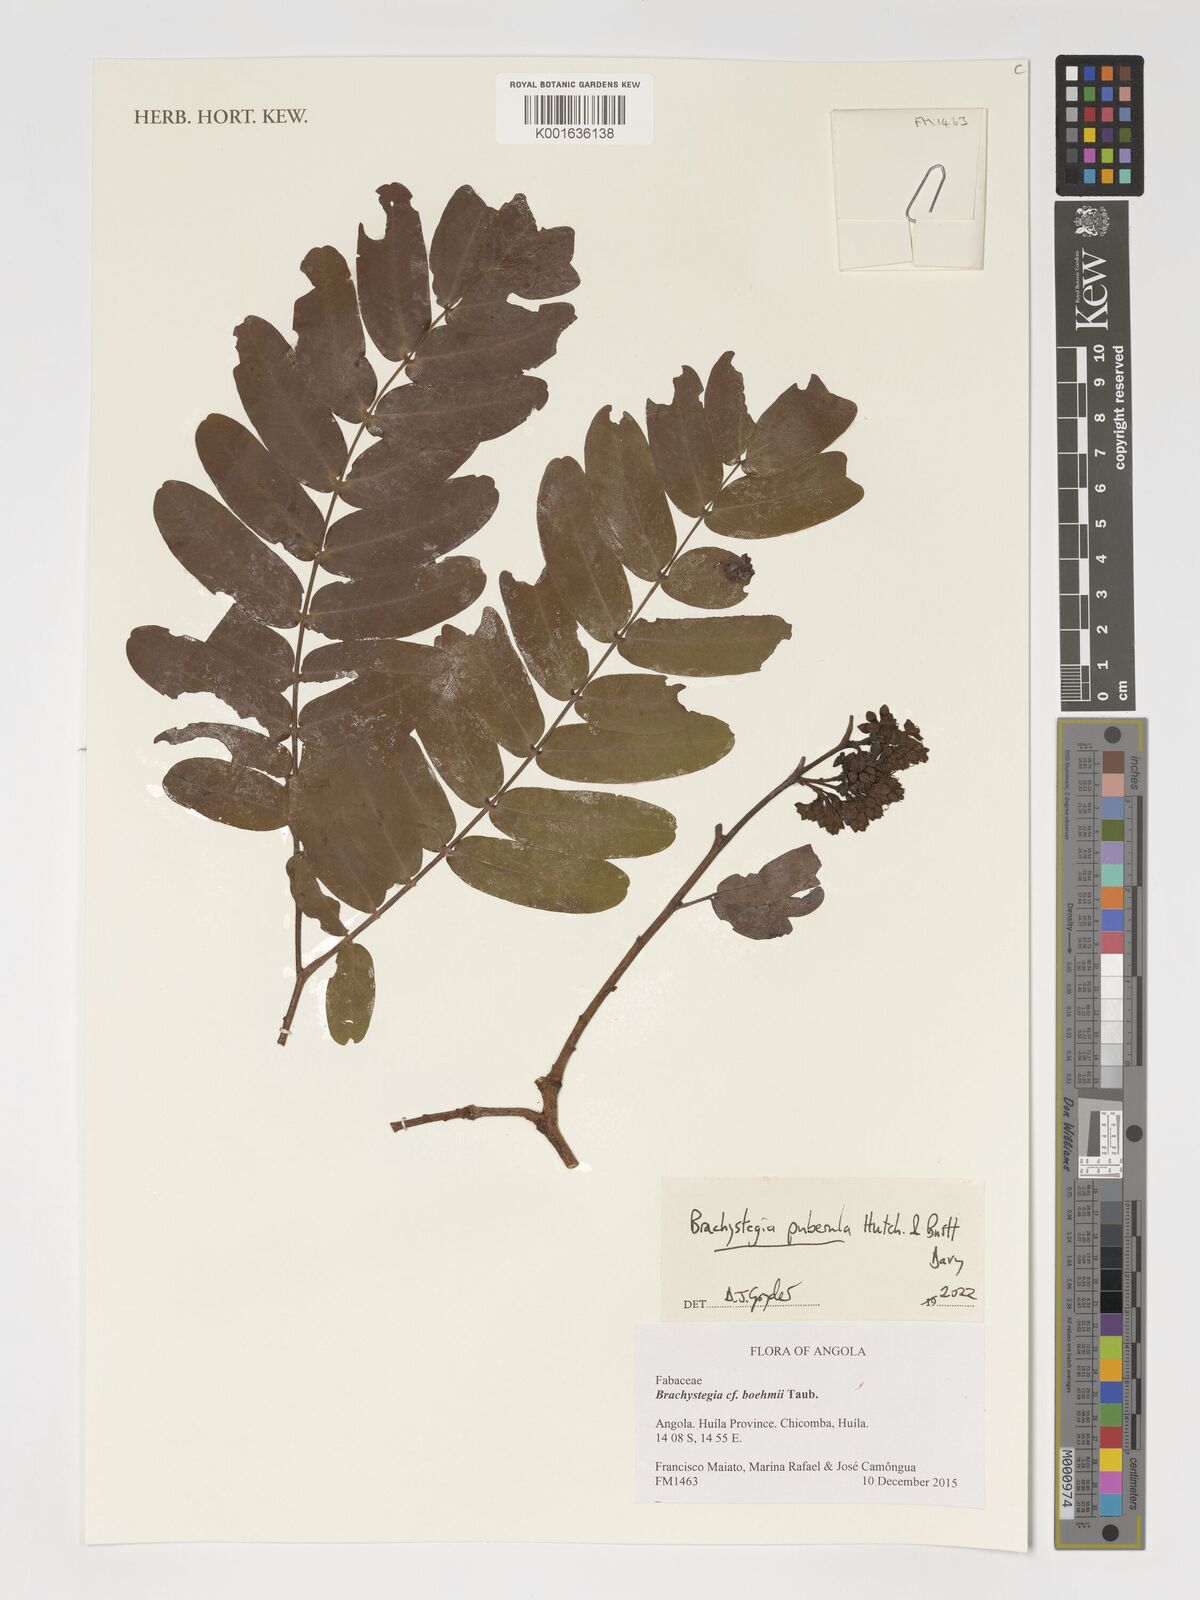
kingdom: Plantae
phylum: Tracheophyta
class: Magnoliopsida
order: Fabales
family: Fabaceae
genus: Brachystegia
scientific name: Brachystegia puberula
